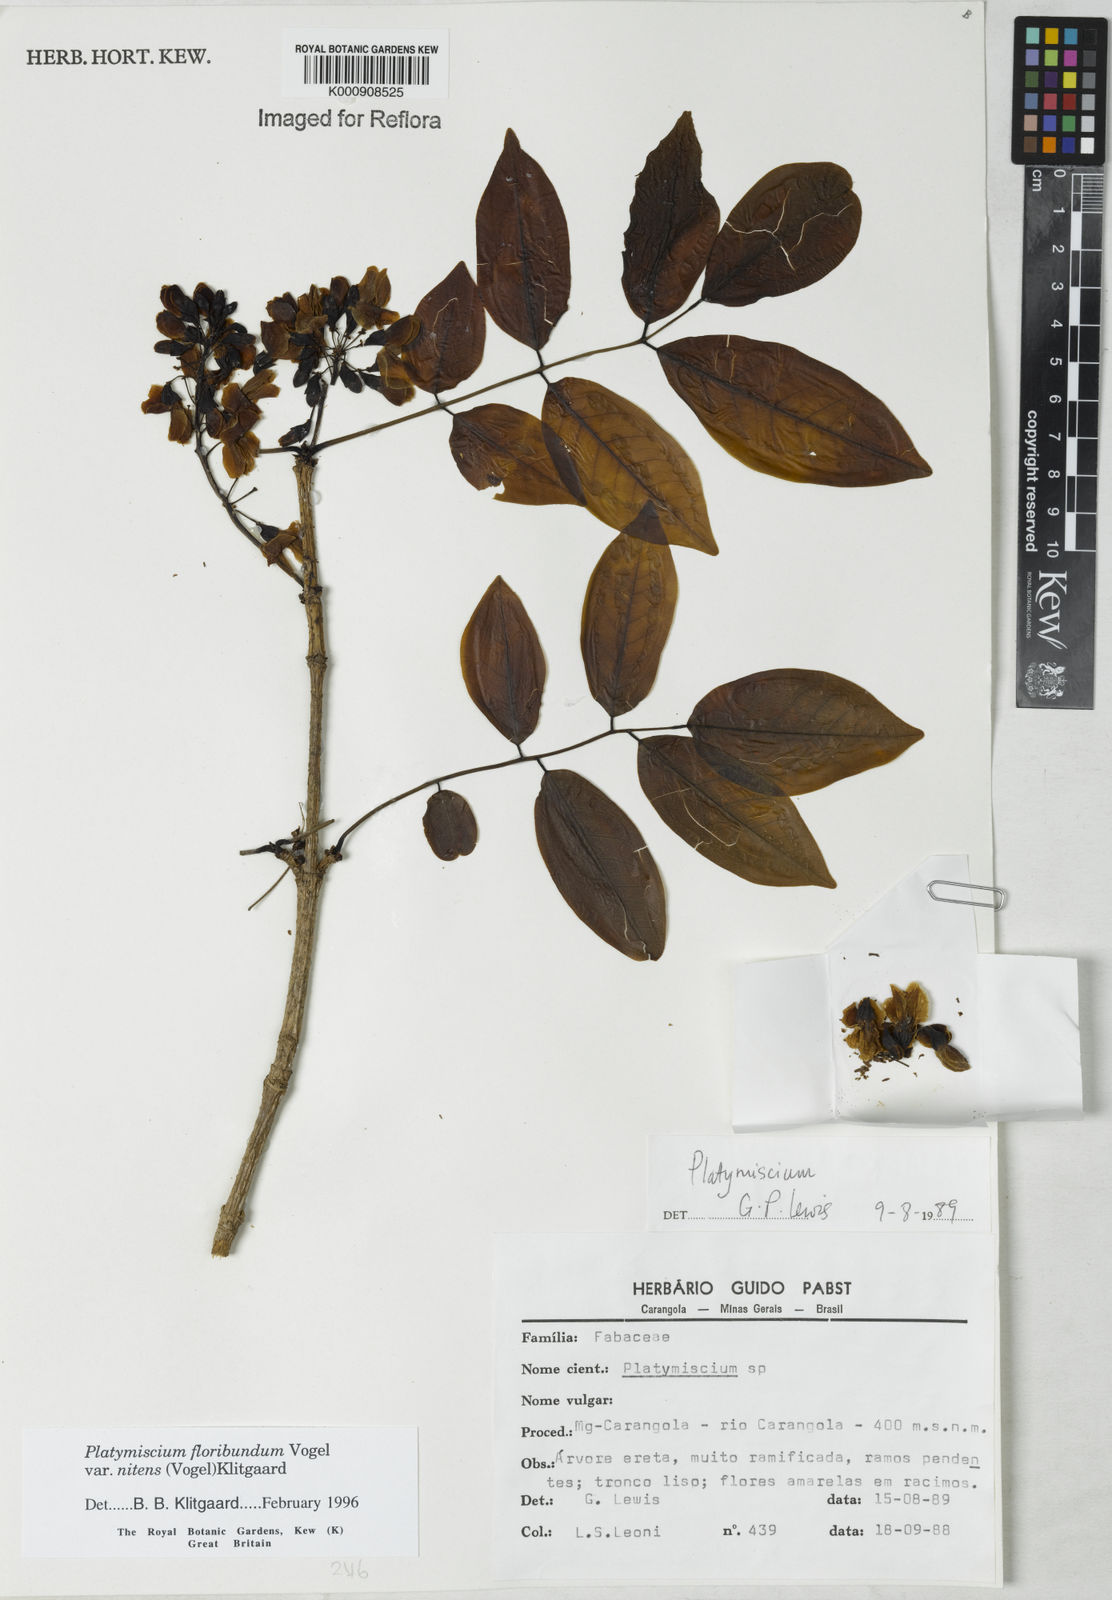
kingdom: Plantae
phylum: Tracheophyta
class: Magnoliopsida
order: Fabales
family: Fabaceae
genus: Platymiscium
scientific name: Platymiscium floribundum
